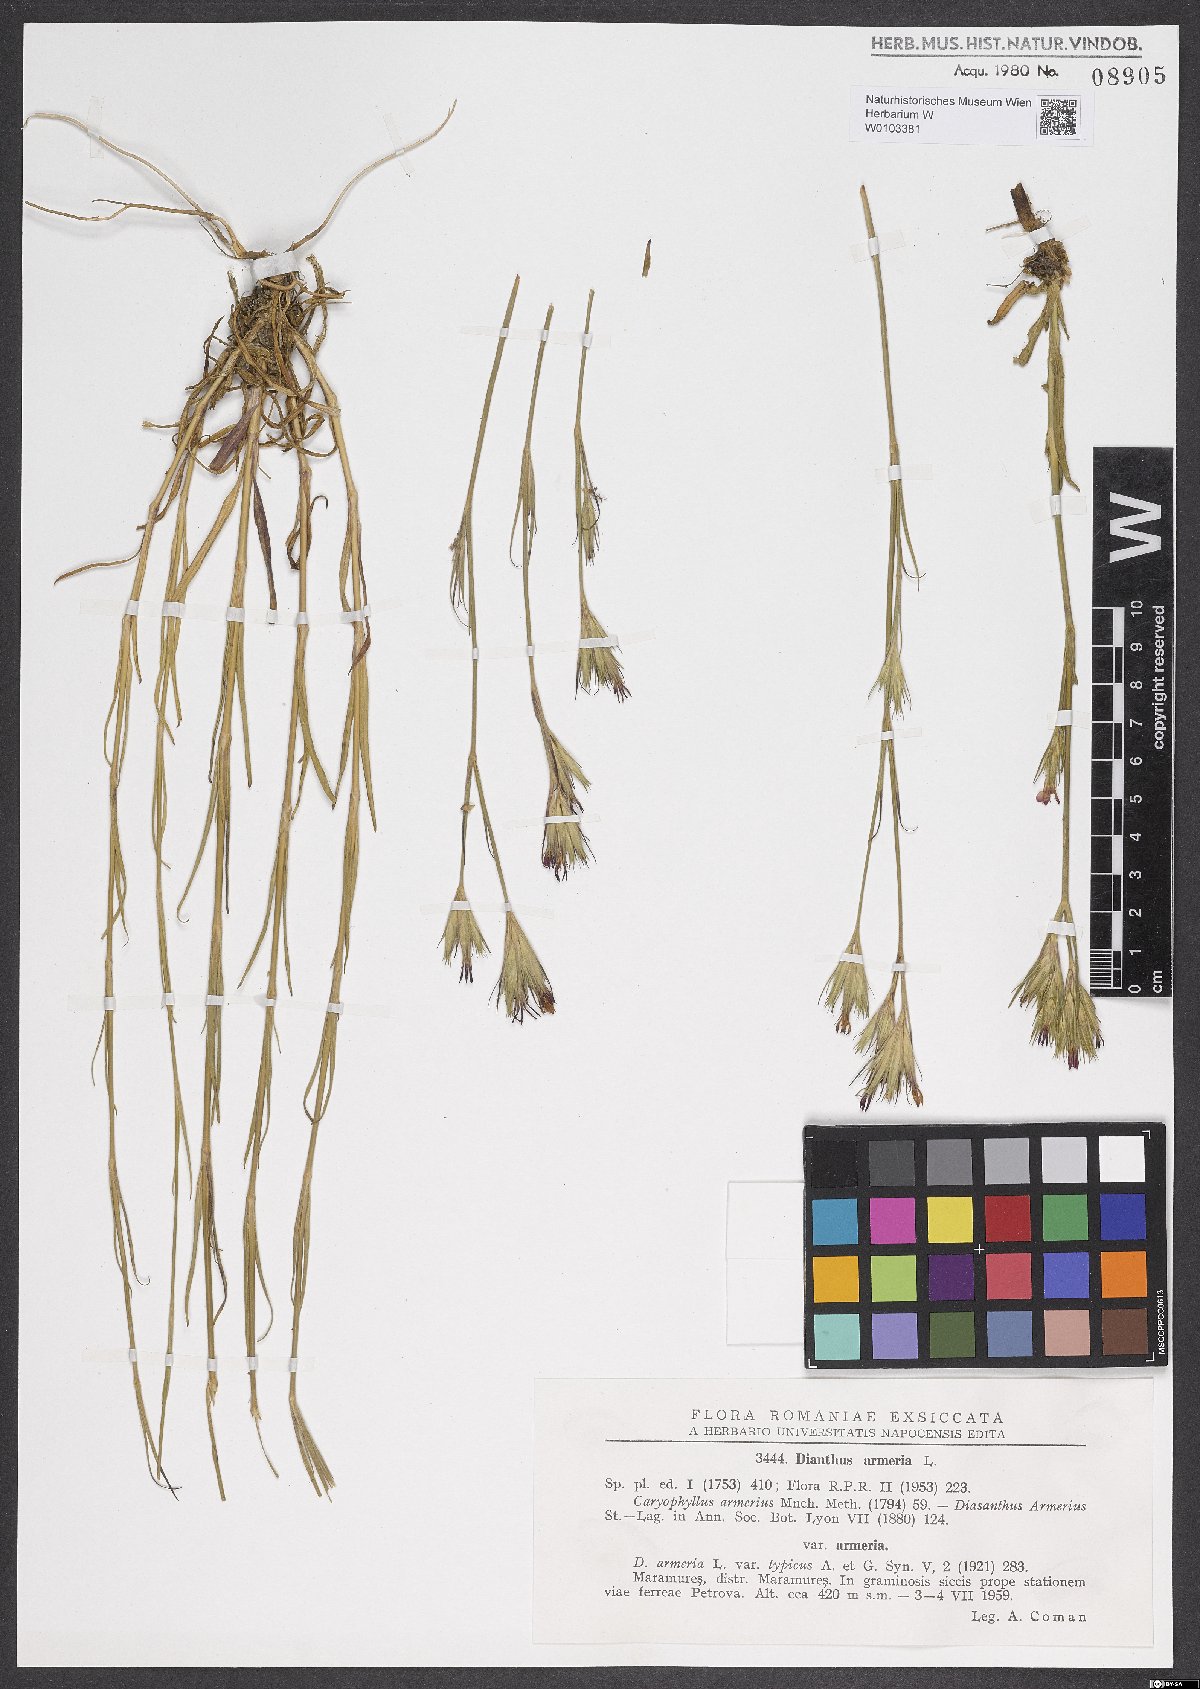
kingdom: Plantae
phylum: Tracheophyta
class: Magnoliopsida
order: Caryophyllales
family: Caryophyllaceae
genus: Dianthus
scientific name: Dianthus armeria
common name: Deptford pink
